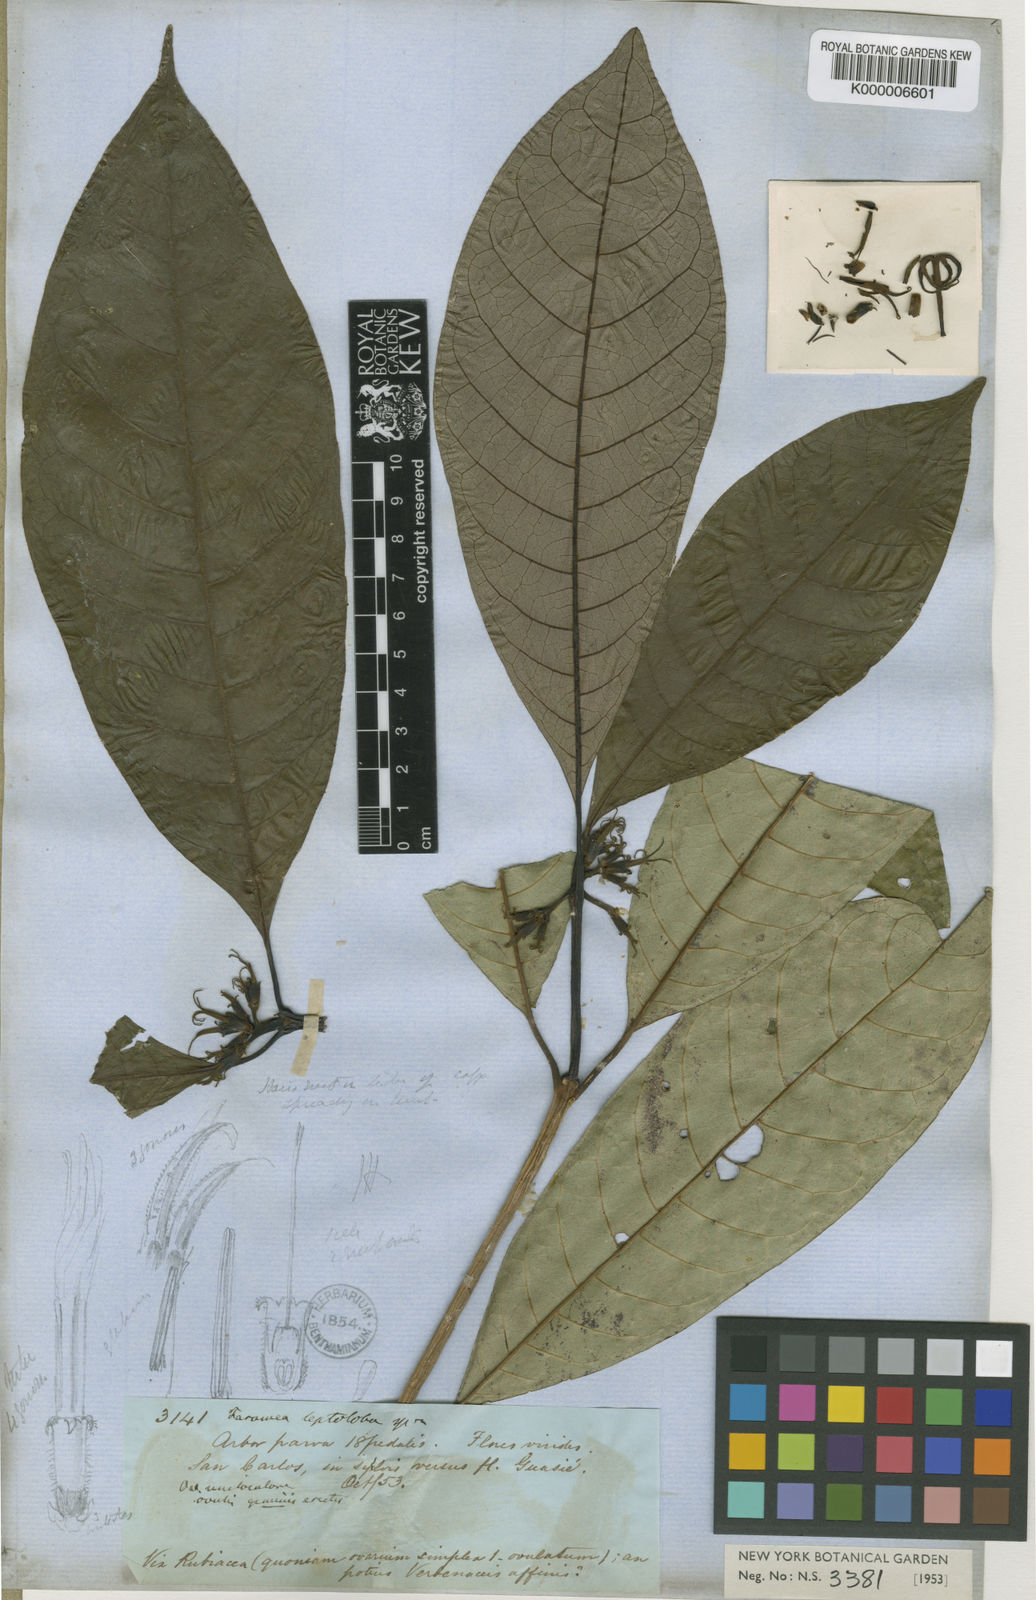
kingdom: Plantae
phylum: Tracheophyta
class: Magnoliopsida
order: Gentianales
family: Rubiaceae
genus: Coussarea
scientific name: Coussarea
